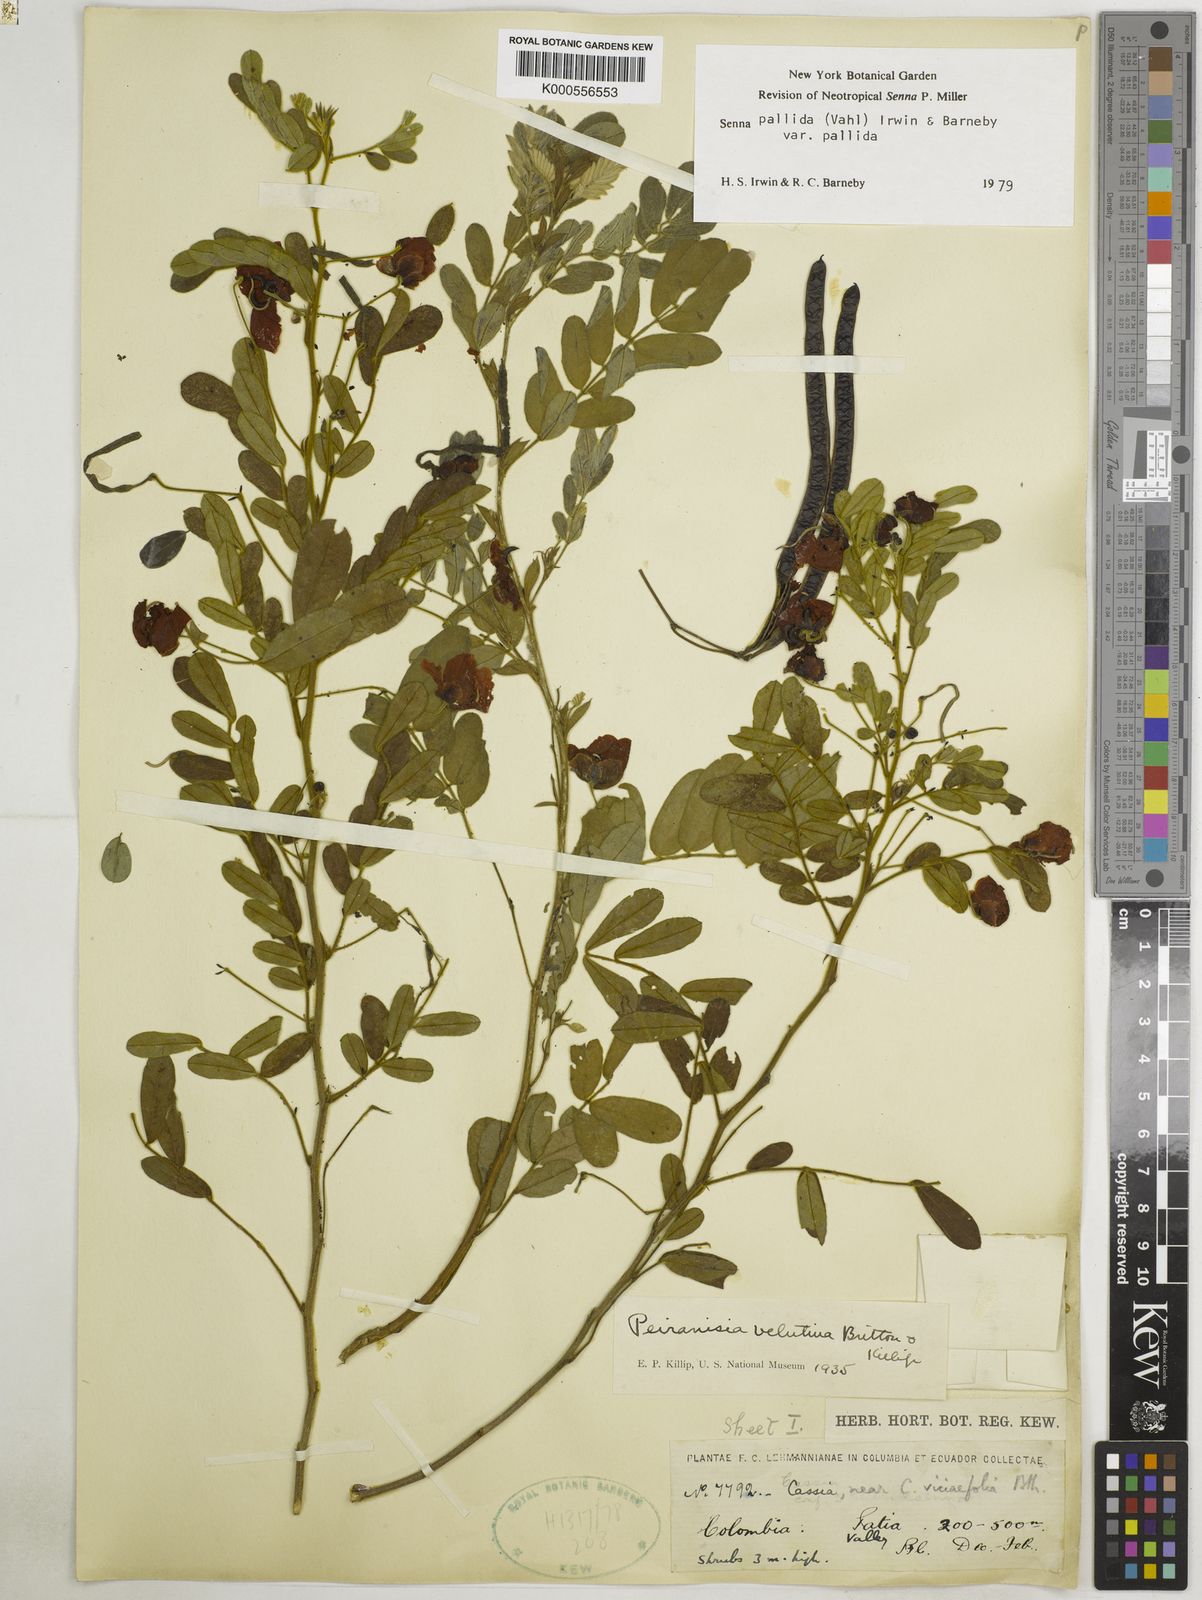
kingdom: Plantae
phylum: Tracheophyta
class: Magnoliopsida
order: Fabales
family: Fabaceae
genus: Senna
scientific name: Senna pallida
